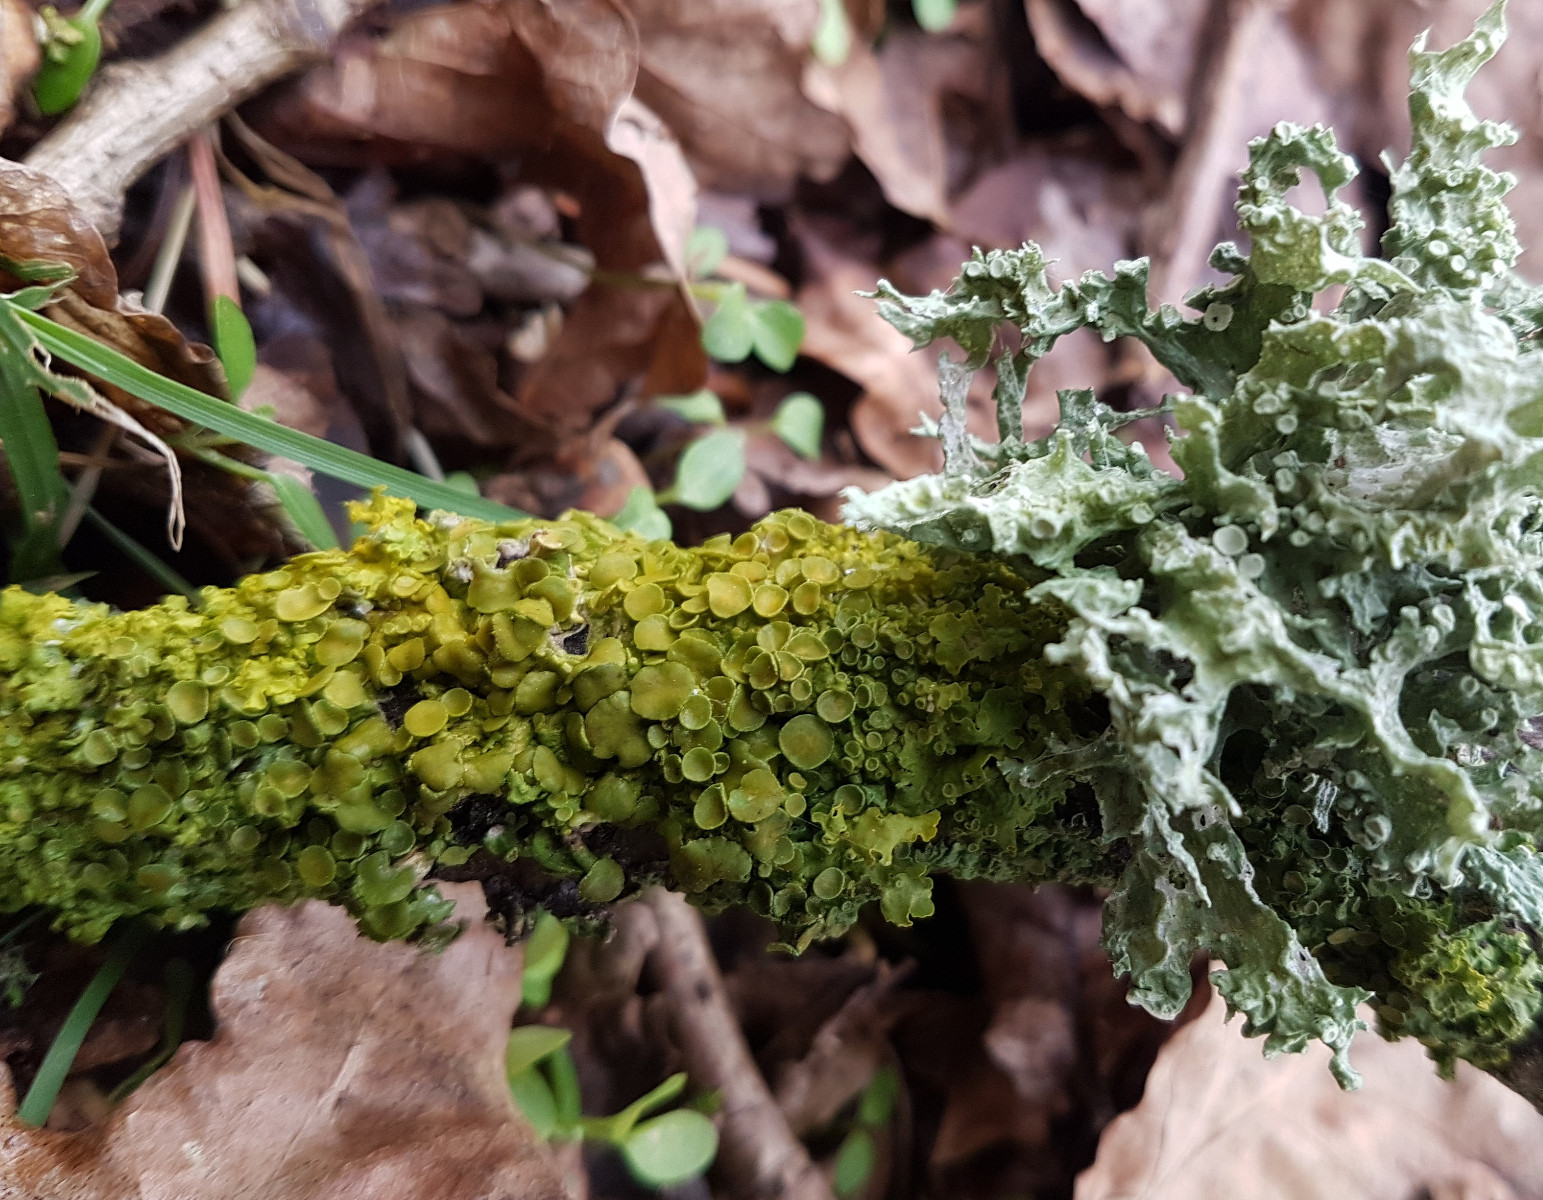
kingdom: Fungi
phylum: Ascomycota
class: Lecanoromycetes
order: Teloschistales
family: Teloschistaceae
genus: Xanthoria
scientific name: Xanthoria parietina
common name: almindelig væggelav
